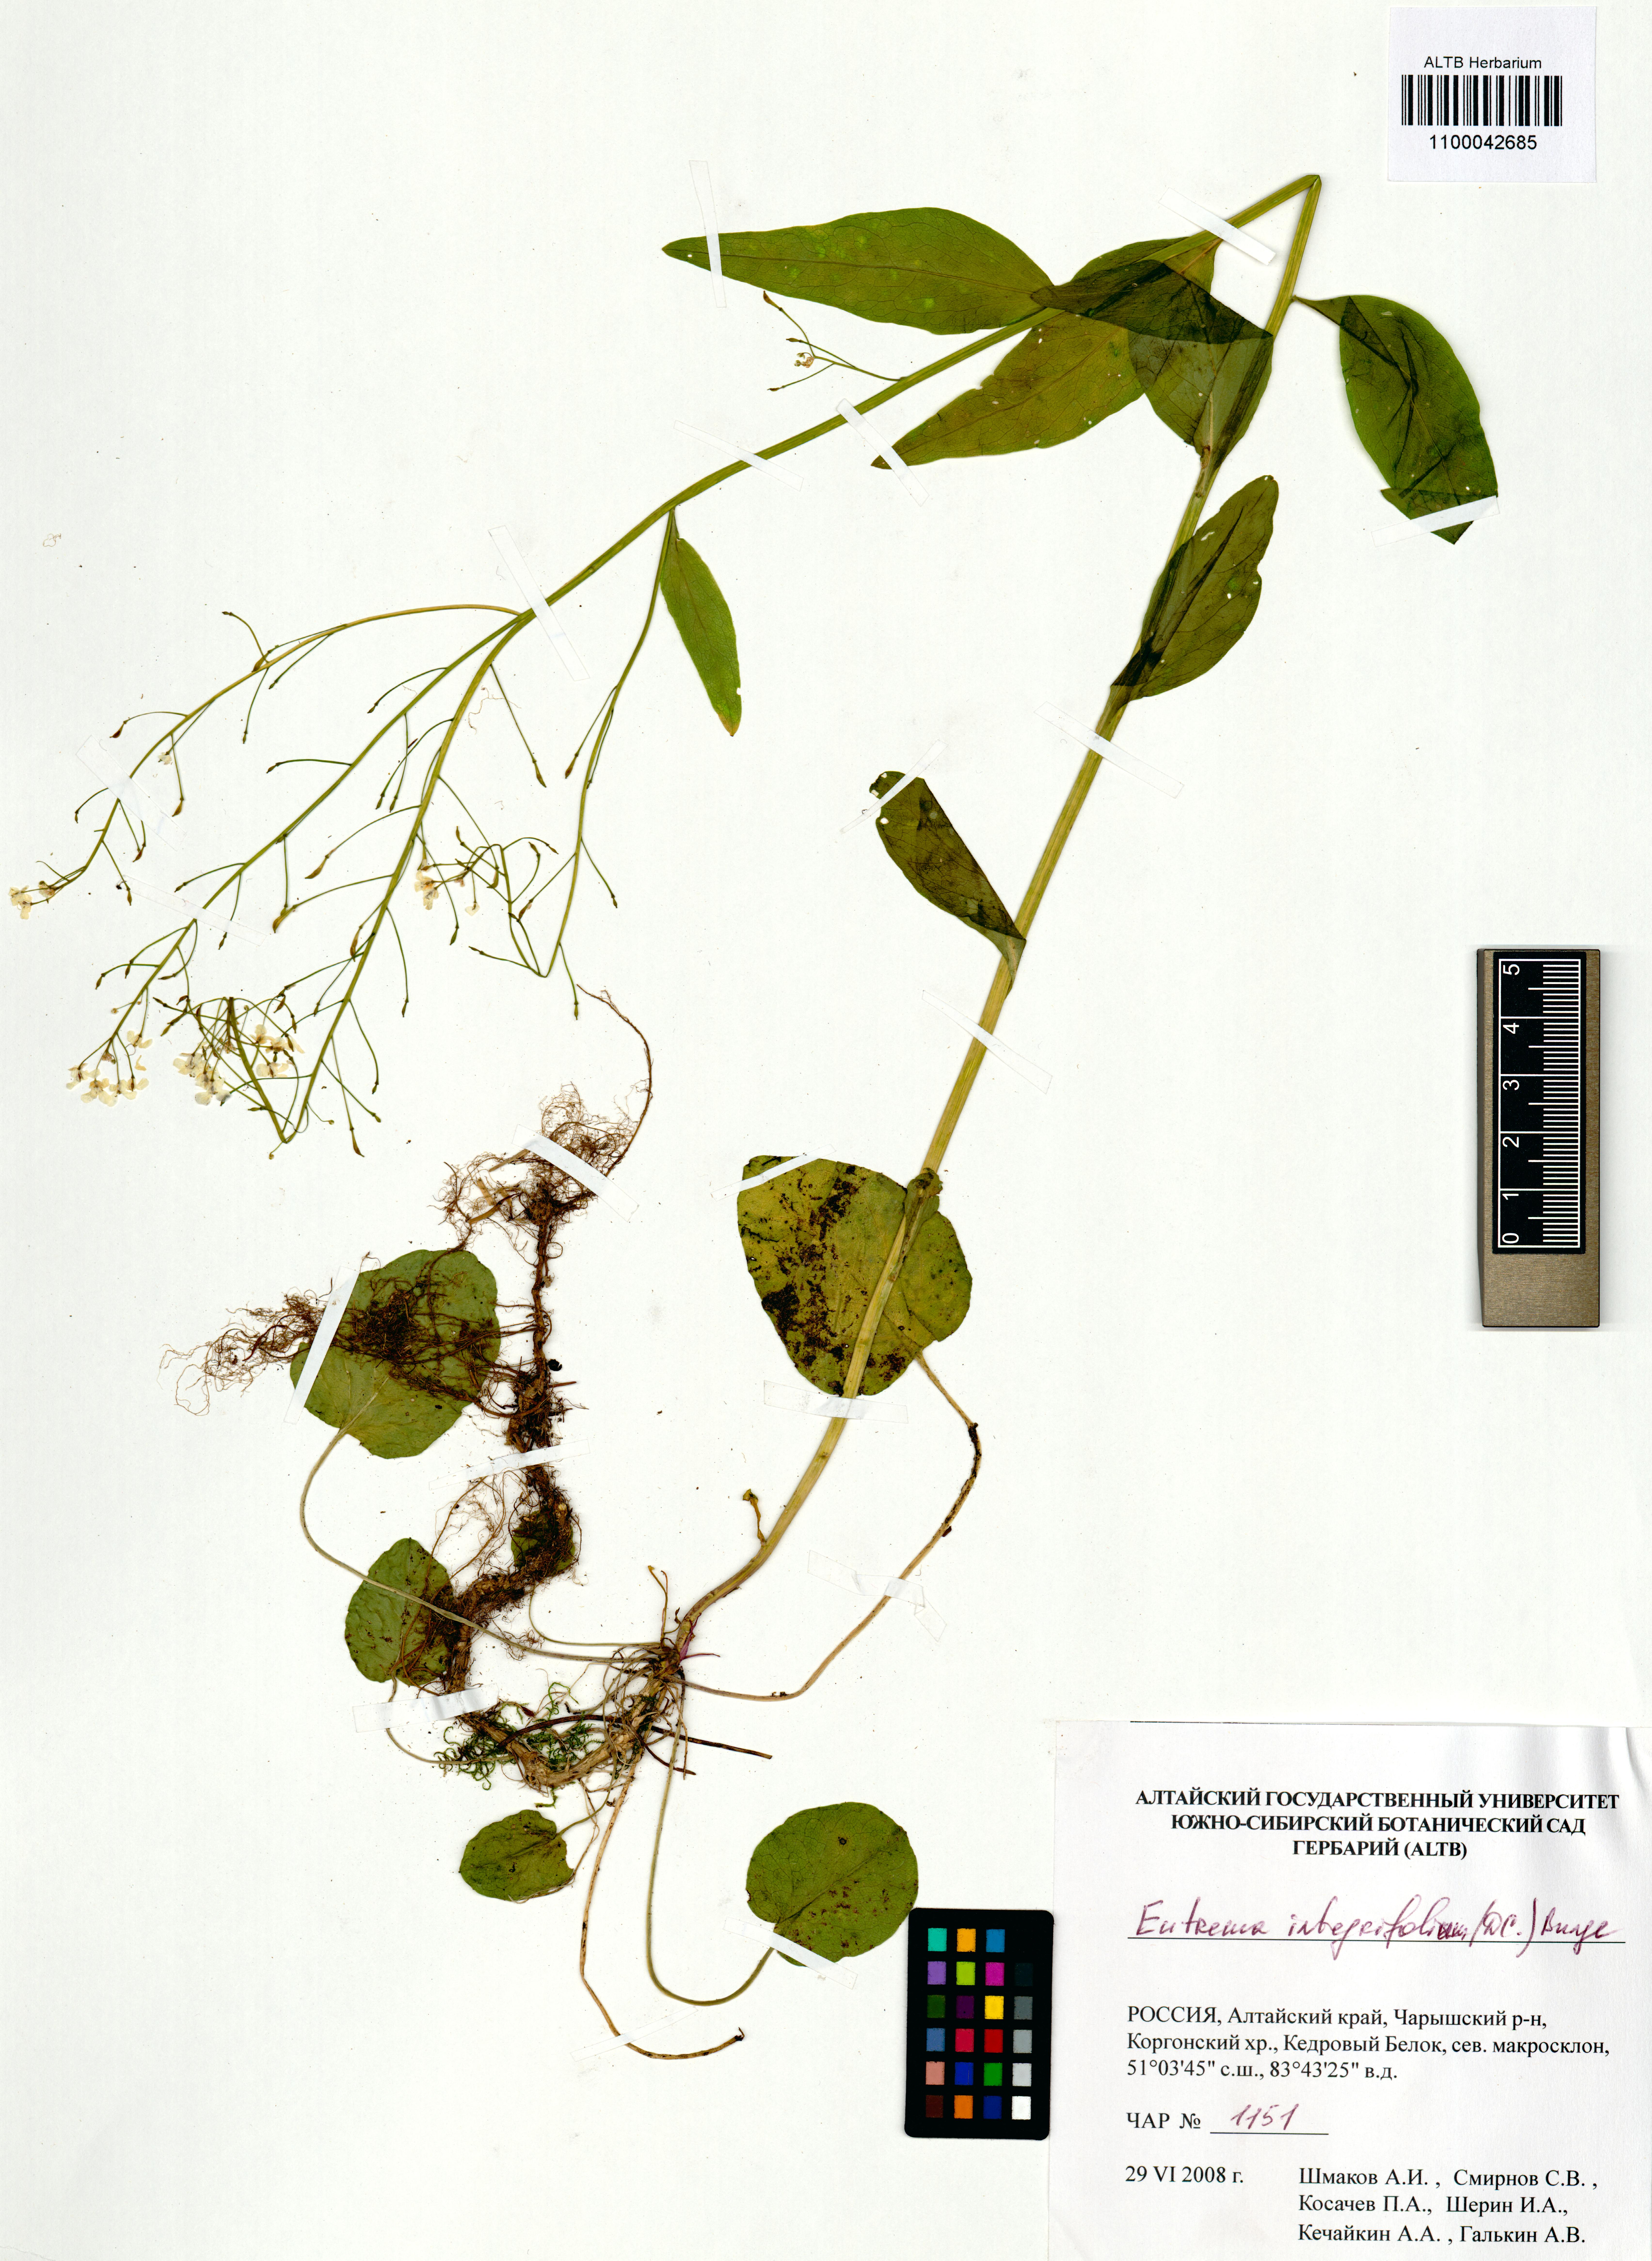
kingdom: Plantae
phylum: Tracheophyta
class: Magnoliopsida
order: Brassicales
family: Brassicaceae
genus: Eutrema
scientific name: Eutrema integrifolium
